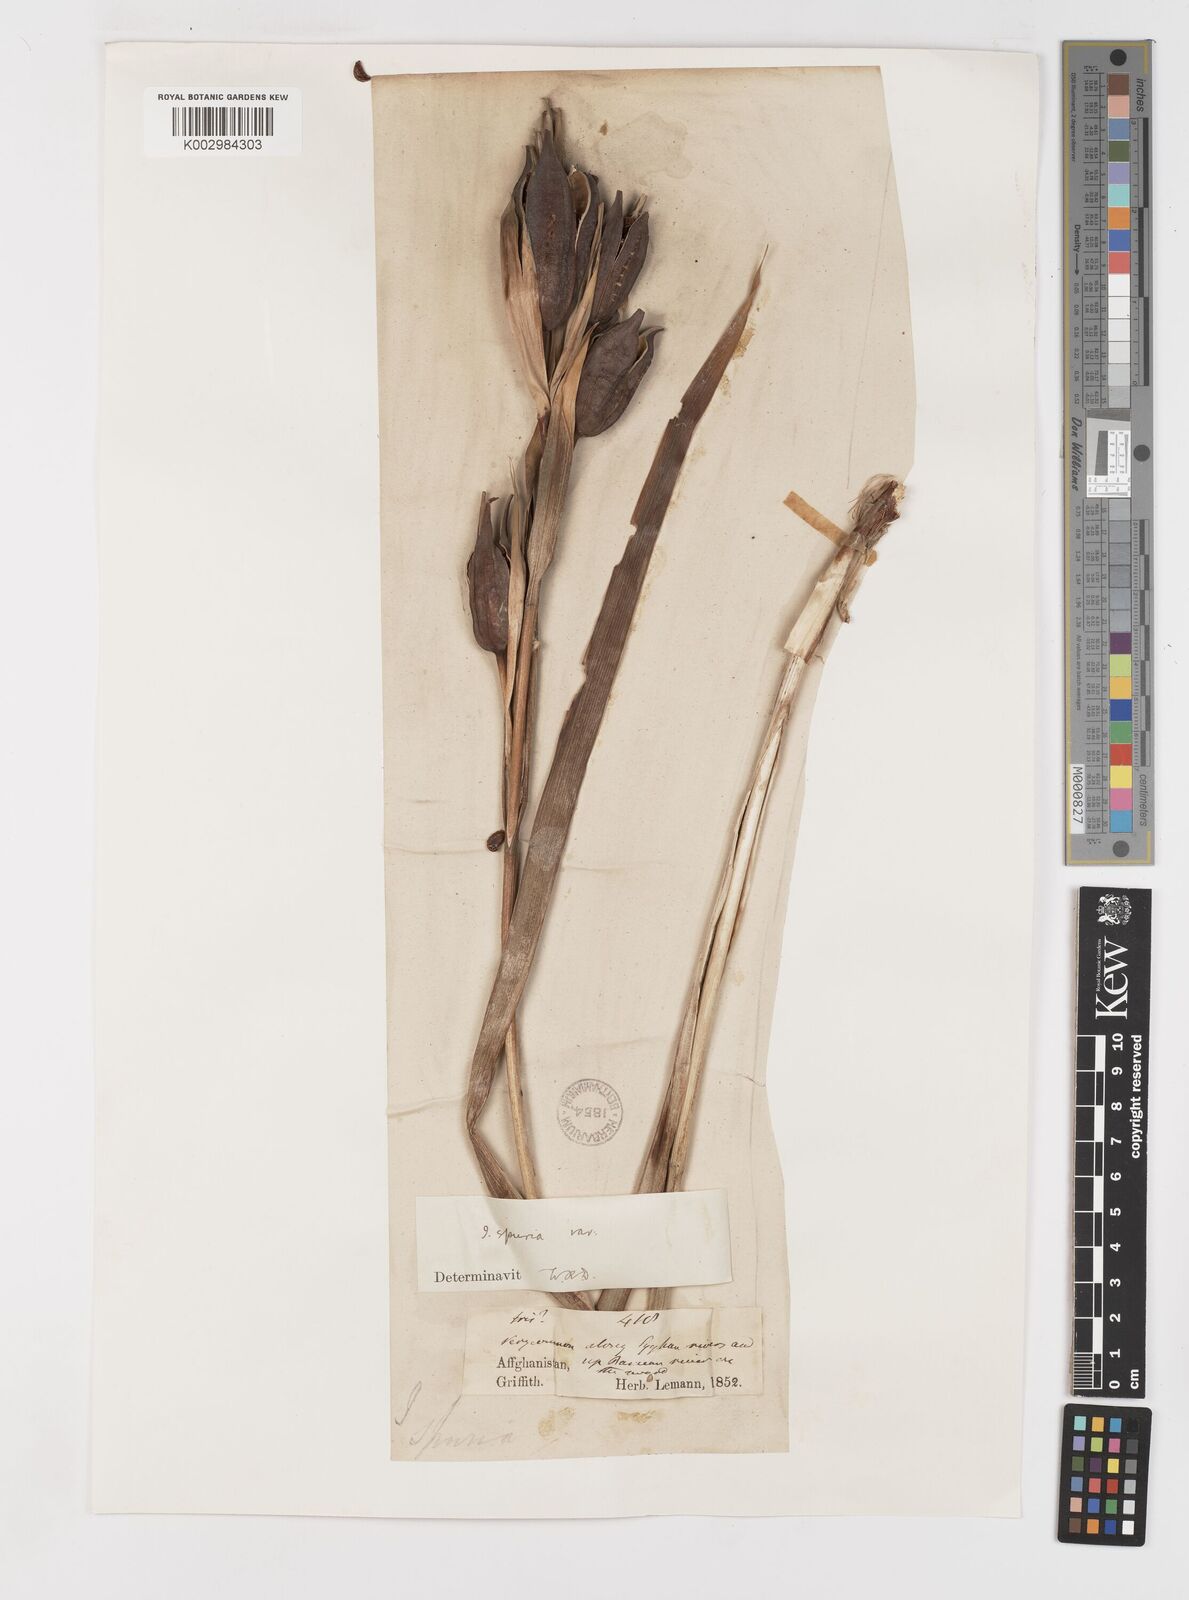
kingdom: Plantae
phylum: Tracheophyta
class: Liliopsida
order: Asparagales
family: Iridaceae
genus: Iris
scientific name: Iris spuria
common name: Blue iris
